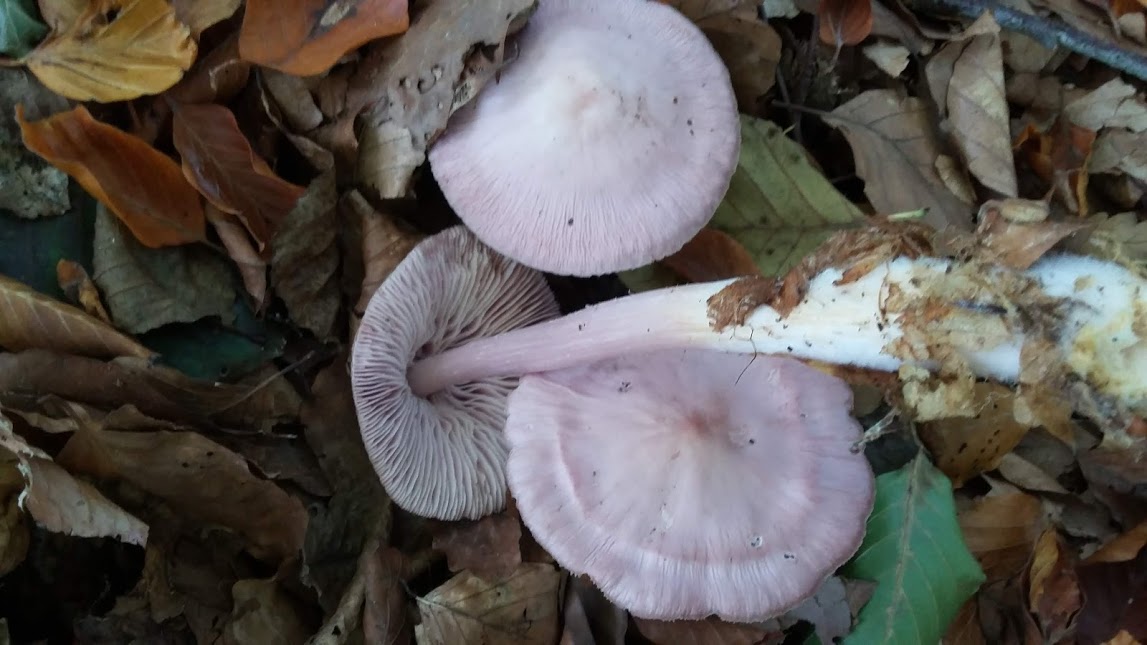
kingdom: Fungi
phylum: Basidiomycota
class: Agaricomycetes
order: Agaricales
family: Mycenaceae
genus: Mycena
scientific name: Mycena rosea
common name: rosa huesvamp
